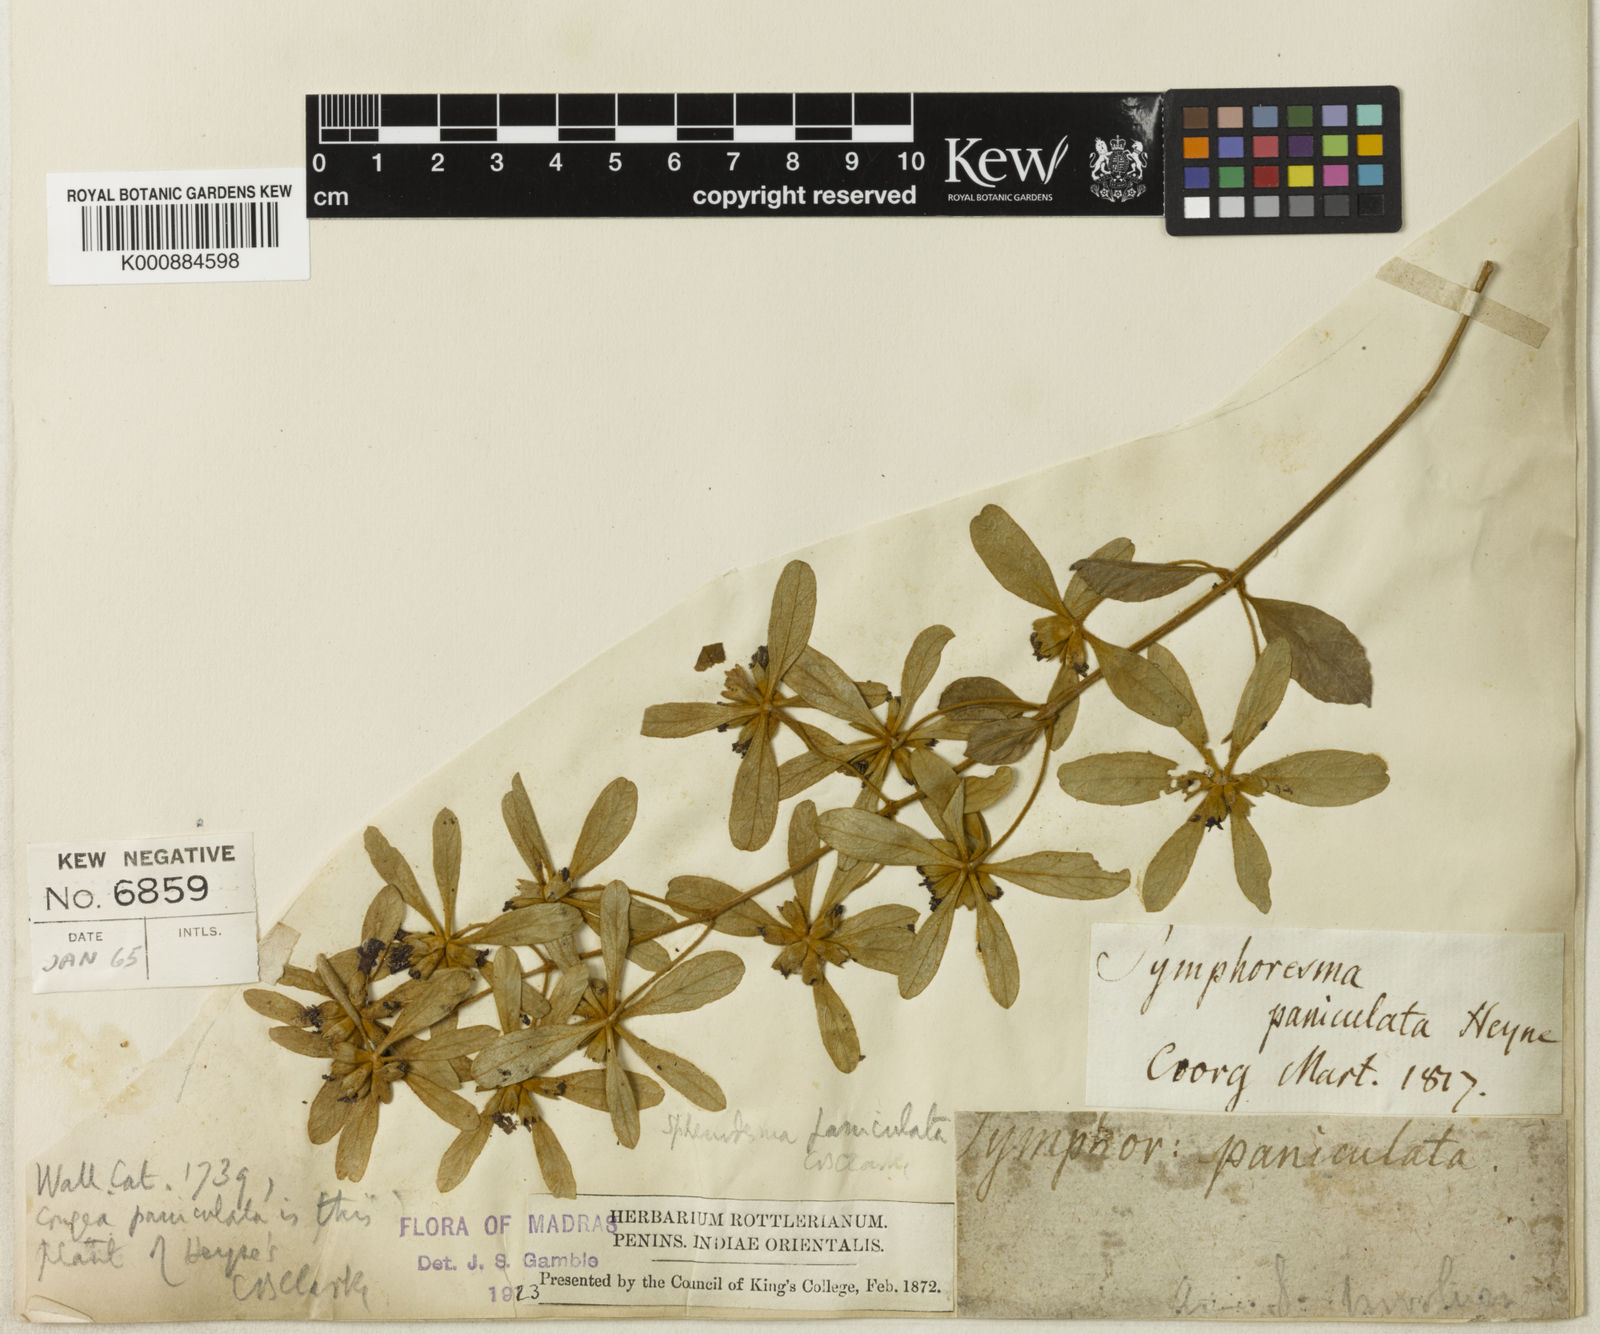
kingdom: Plantae
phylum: Tracheophyta
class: Magnoliopsida
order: Lamiales
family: Lamiaceae
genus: Sphenodesme
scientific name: Sphenodesme involucrata
